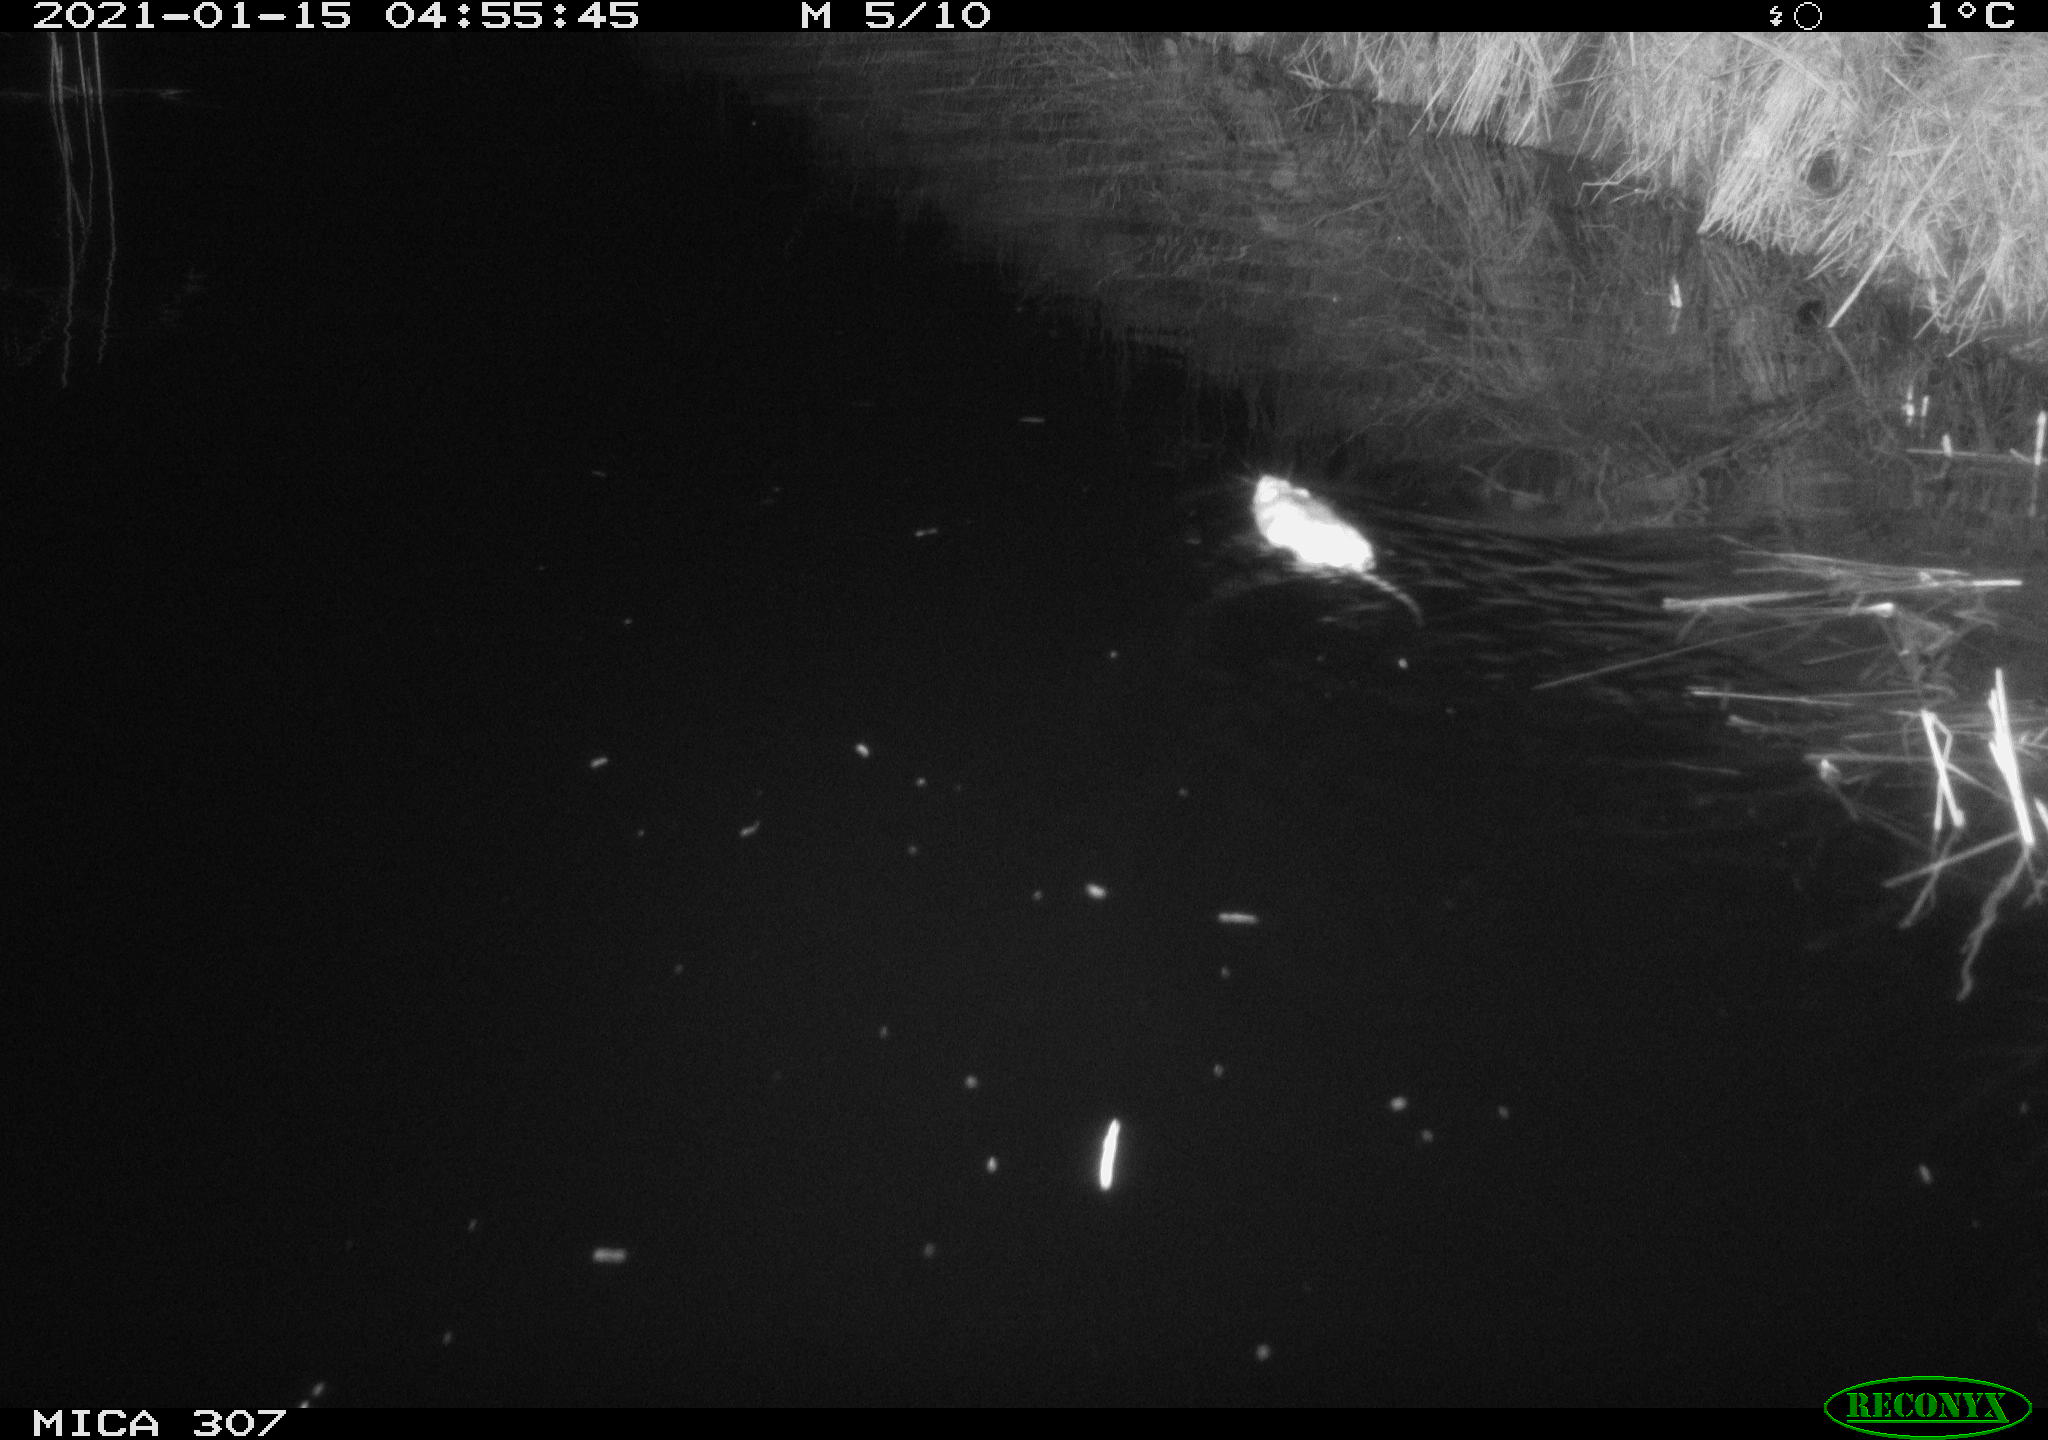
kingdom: Animalia
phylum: Chordata
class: Mammalia
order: Rodentia
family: Muridae
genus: Rattus
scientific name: Rattus norvegicus
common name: Brown rat
